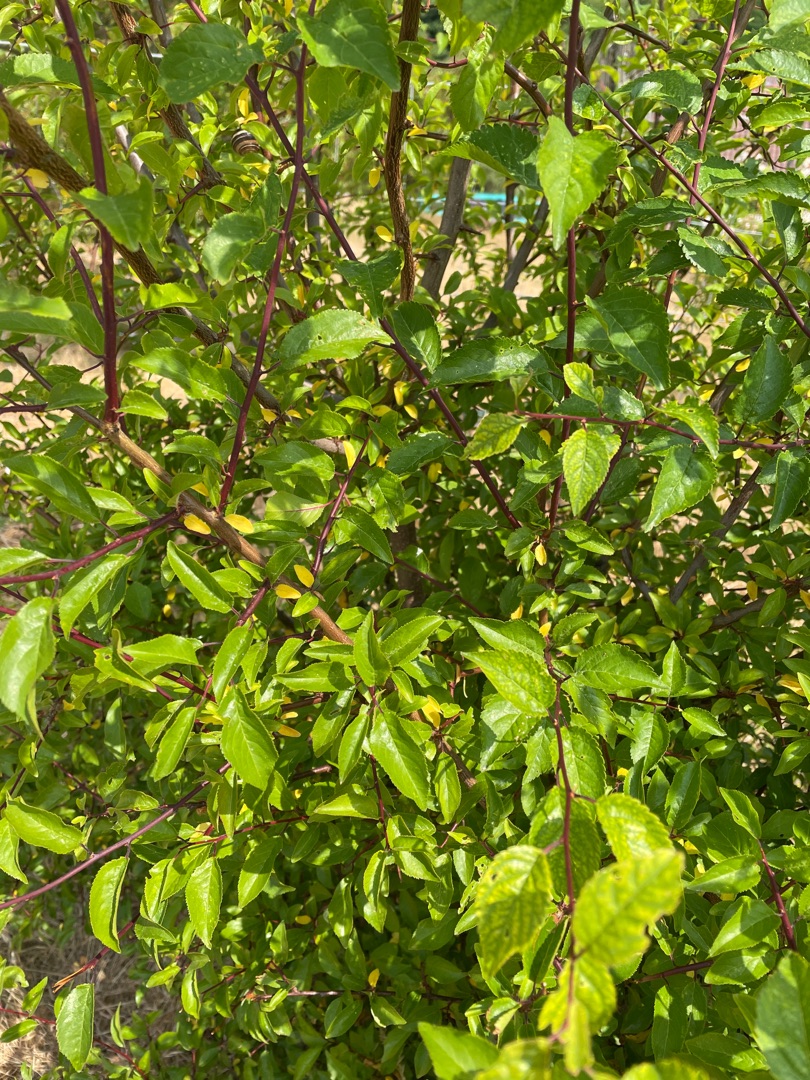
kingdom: Plantae
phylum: Tracheophyta
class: Magnoliopsida
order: Rosales
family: Rosaceae
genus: Prunus
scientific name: Prunus cerasifera
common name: Mirabel
